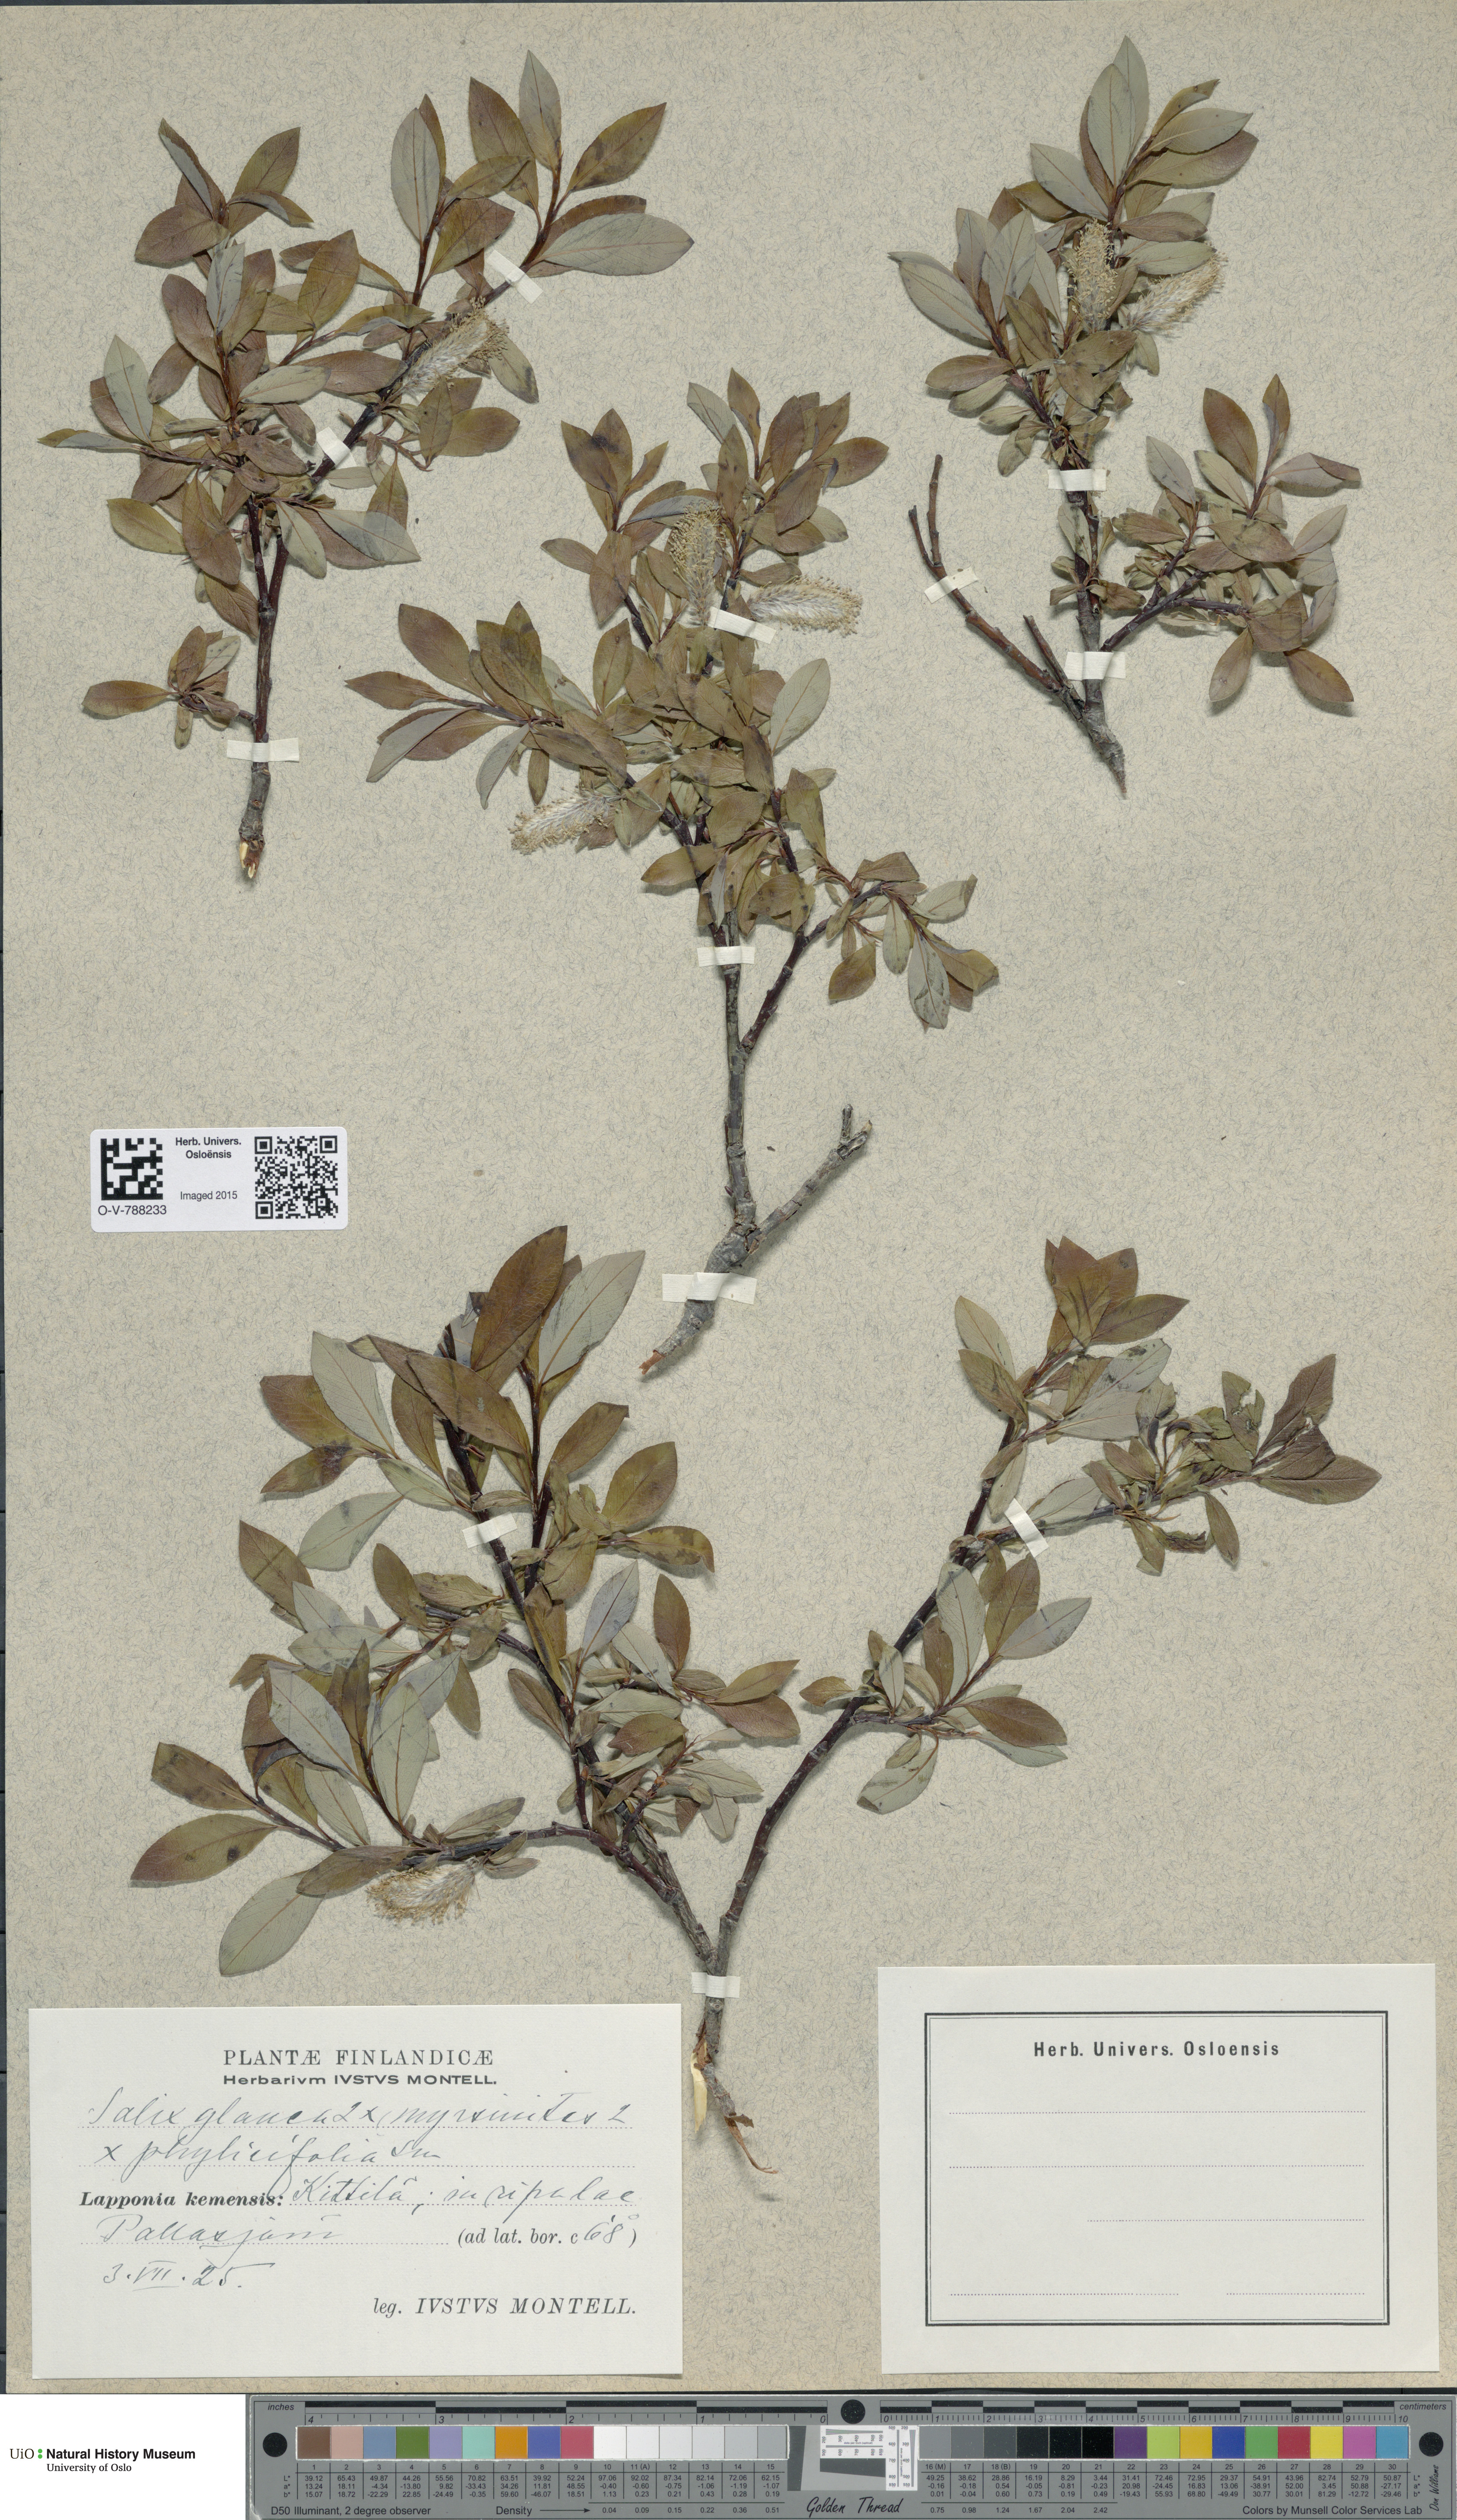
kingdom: Plantae
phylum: Tracheophyta
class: Magnoliopsida
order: Malpighiales
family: Salicaceae
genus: Salix
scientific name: Salix
